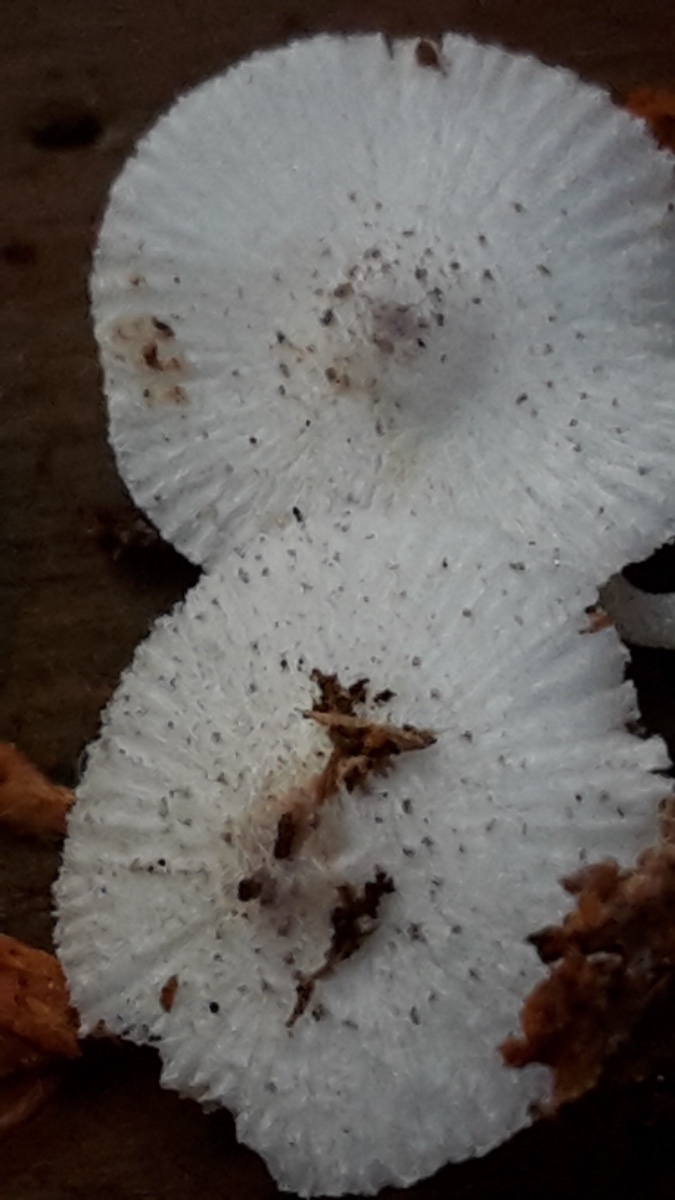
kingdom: Fungi
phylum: Basidiomycota
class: Agaricomycetes
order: Agaricales
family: Agaricaceae
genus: Leucocoprinus
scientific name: Leucocoprinus brebissonii
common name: gråsort silkehat
